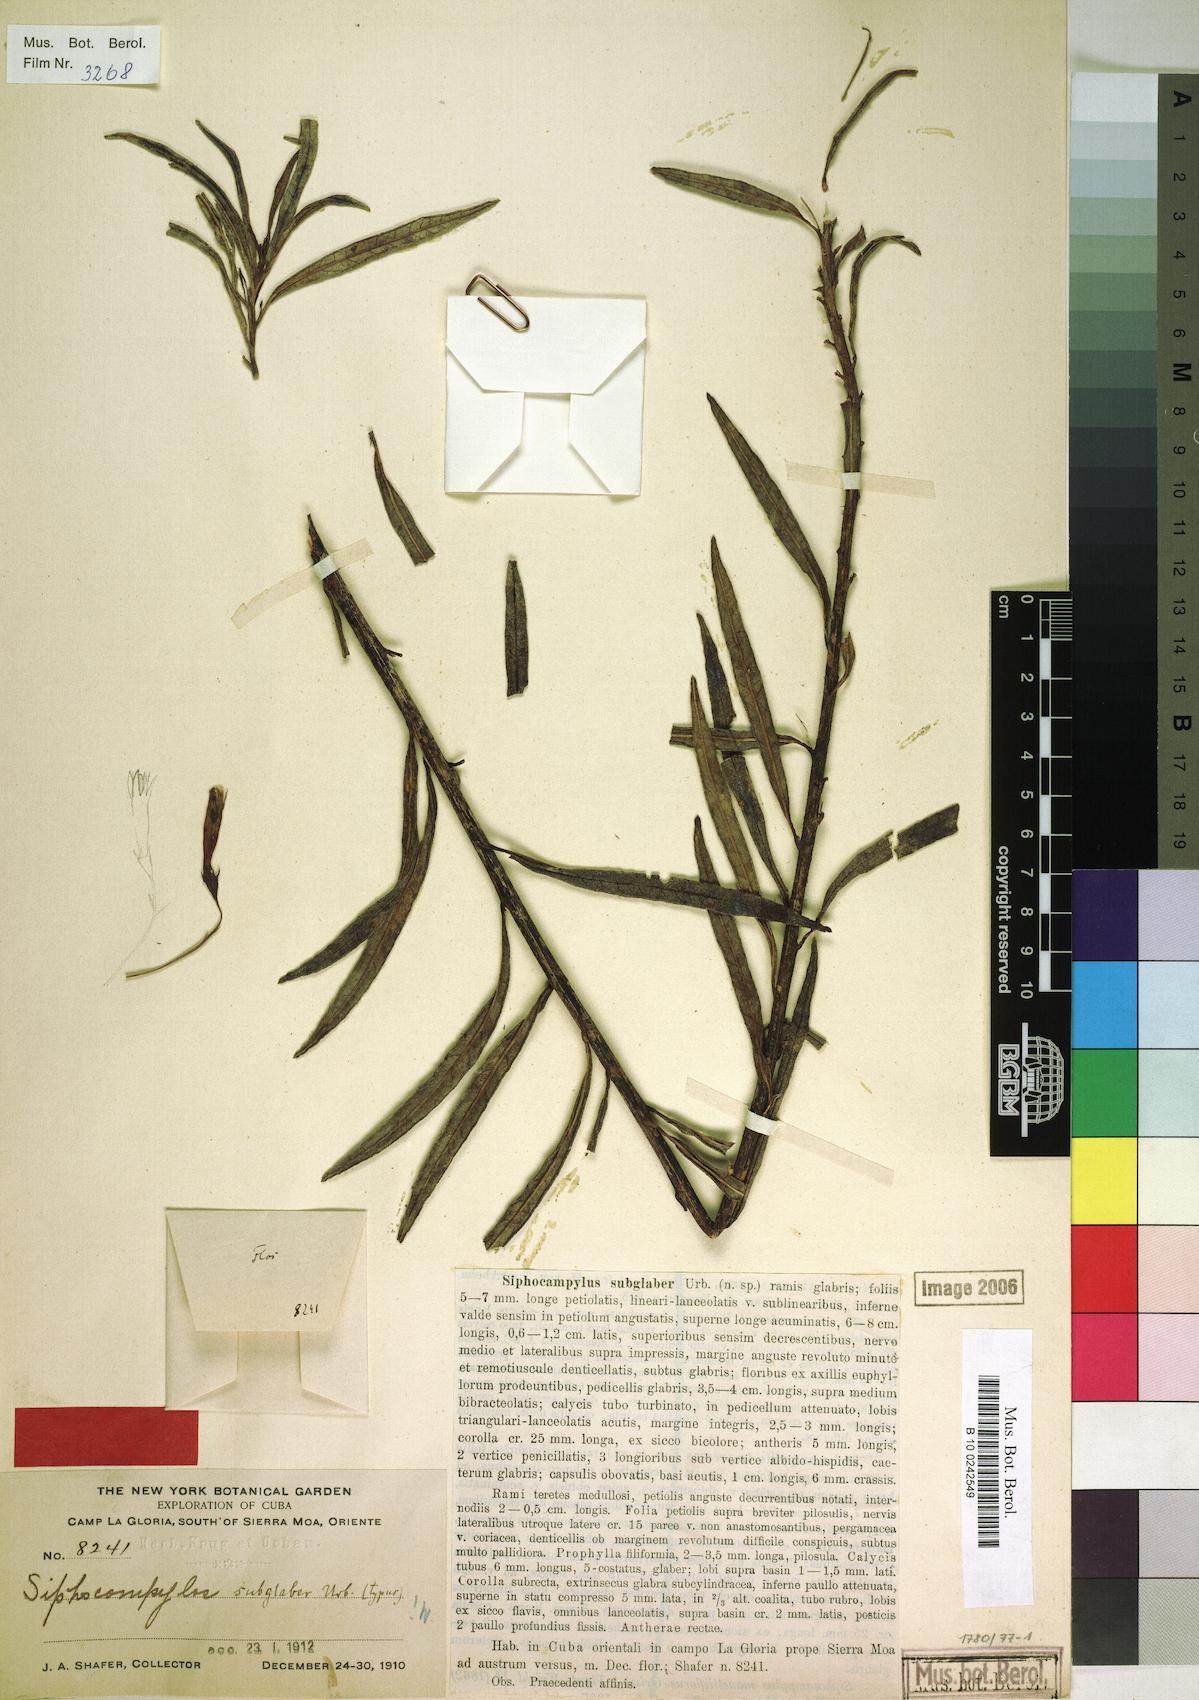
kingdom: Plantae
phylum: Tracheophyta
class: Magnoliopsida
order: Asterales
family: Campanulaceae
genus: Siphocampylus
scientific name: Siphocampylus subglaber
